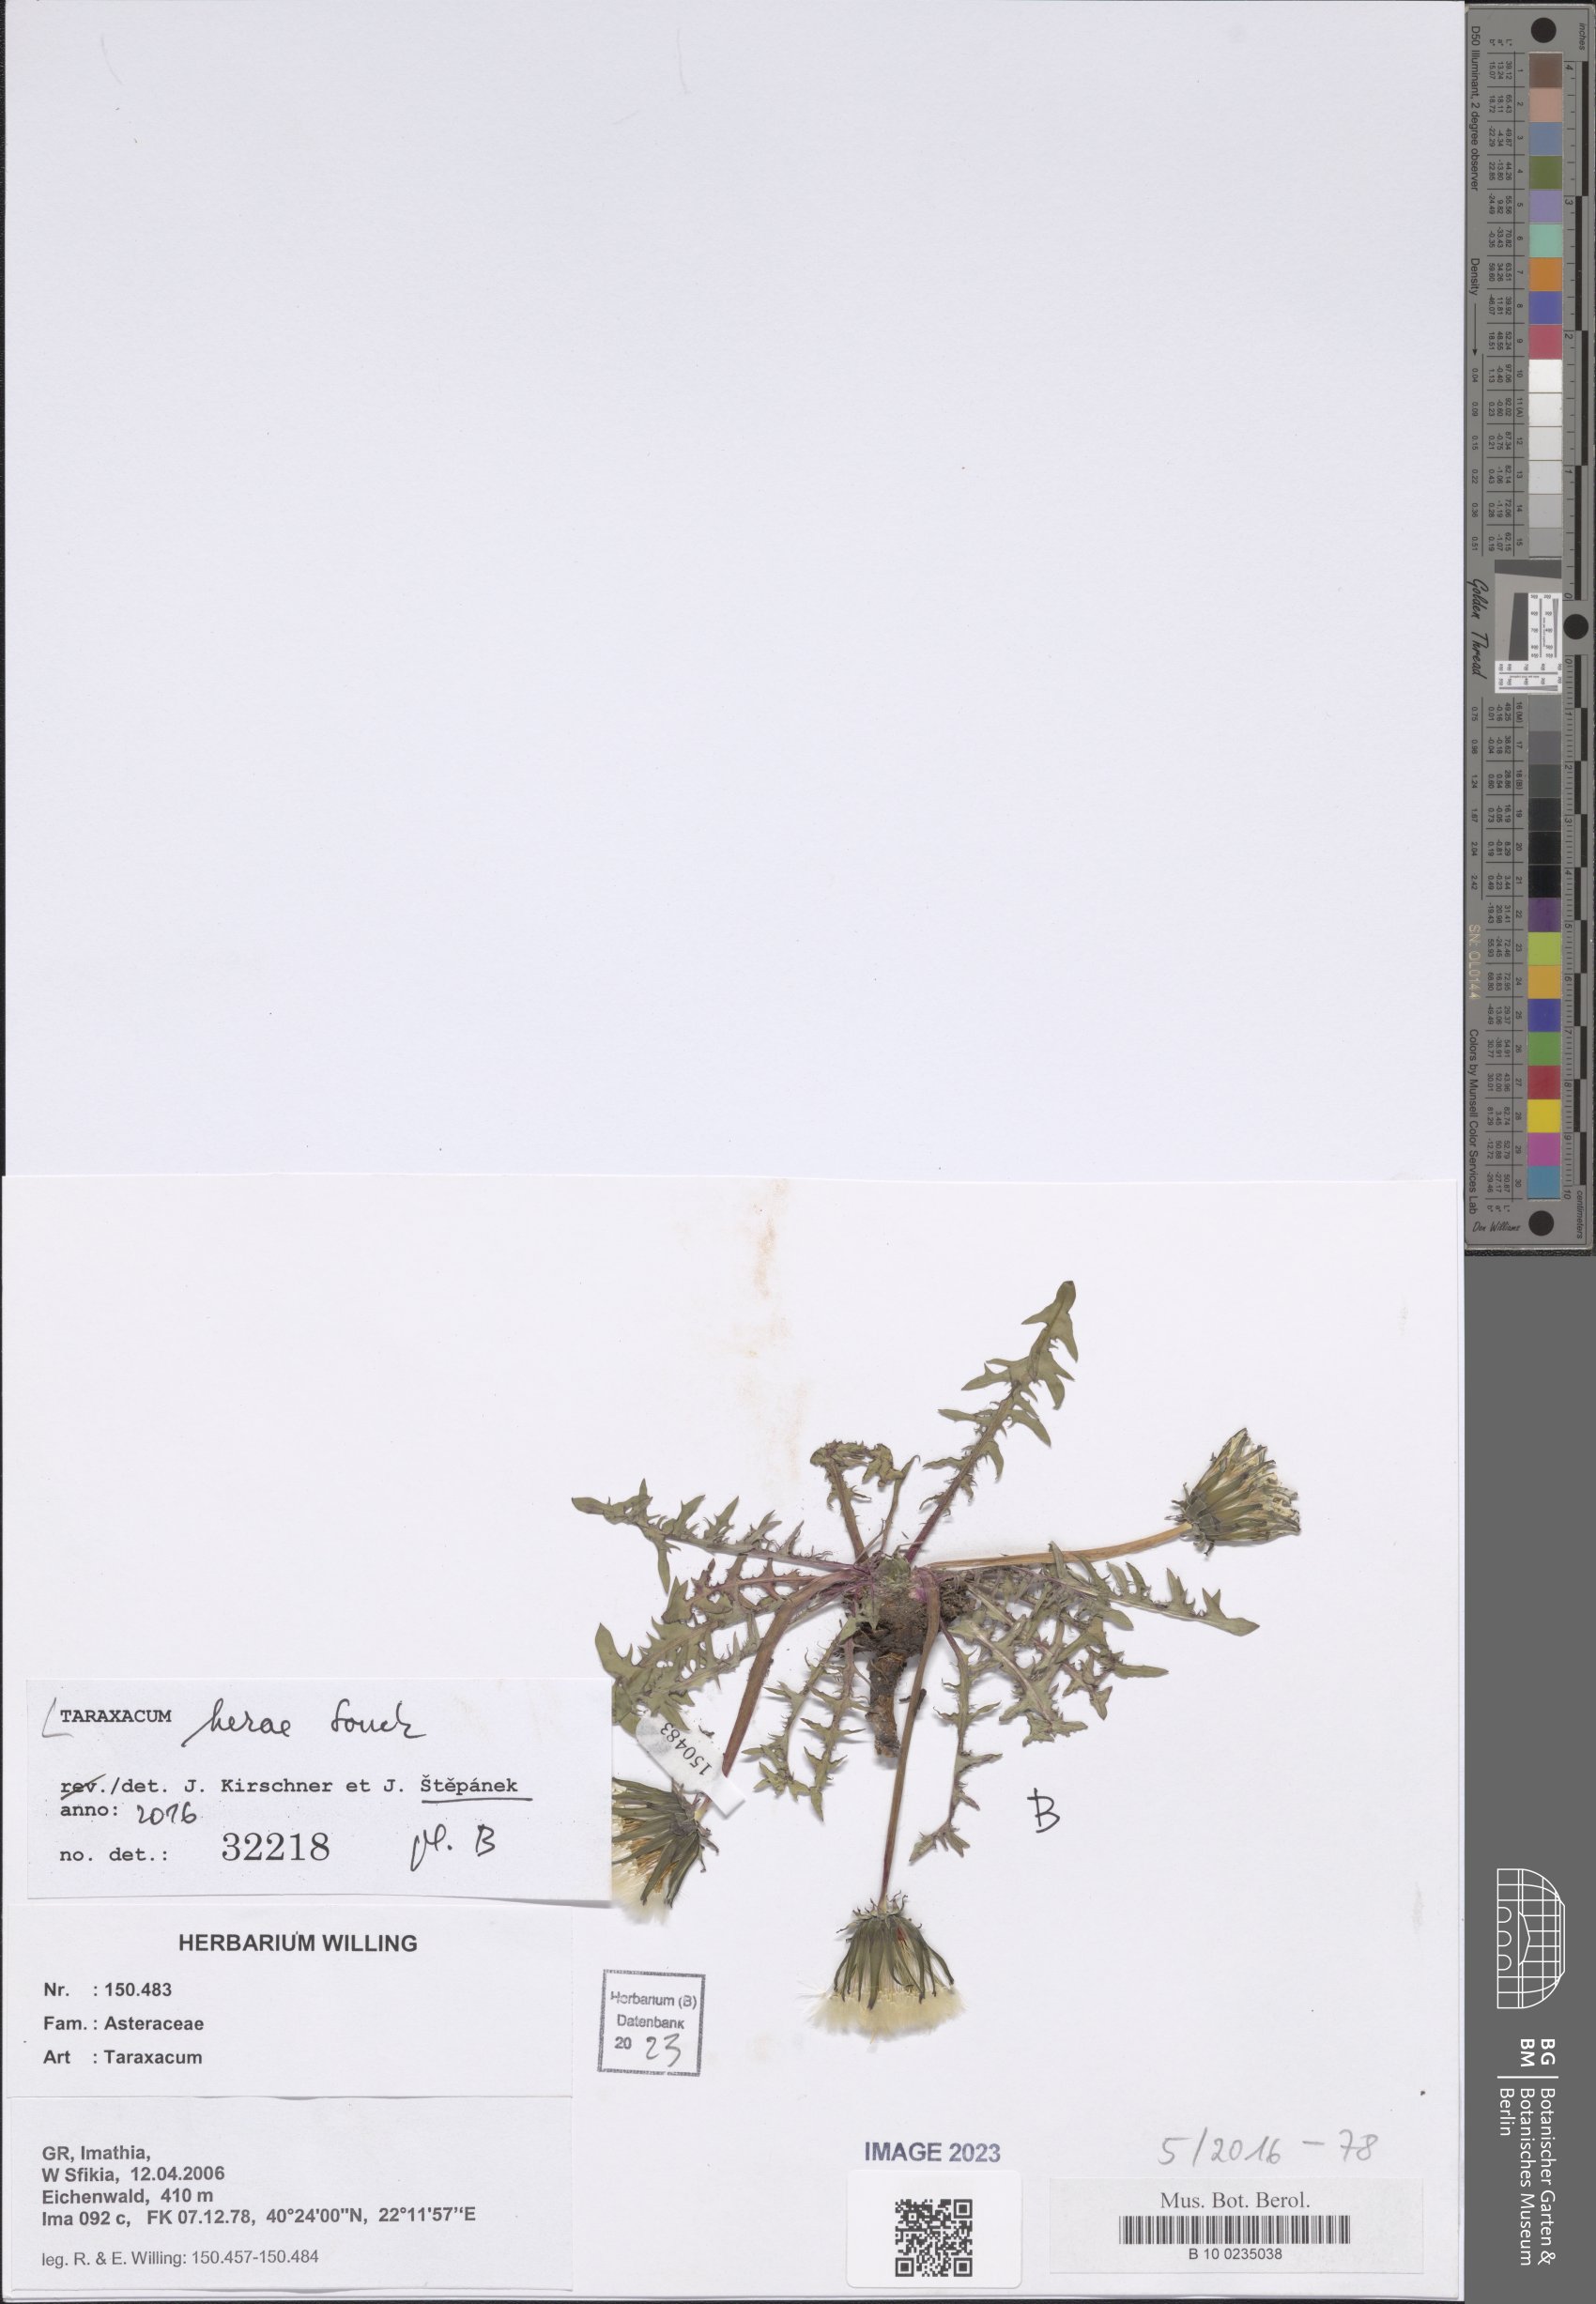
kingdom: Plantae
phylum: Tracheophyta
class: Magnoliopsida
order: Asterales
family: Asteraceae
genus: Taraxacum
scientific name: Taraxacum herae
